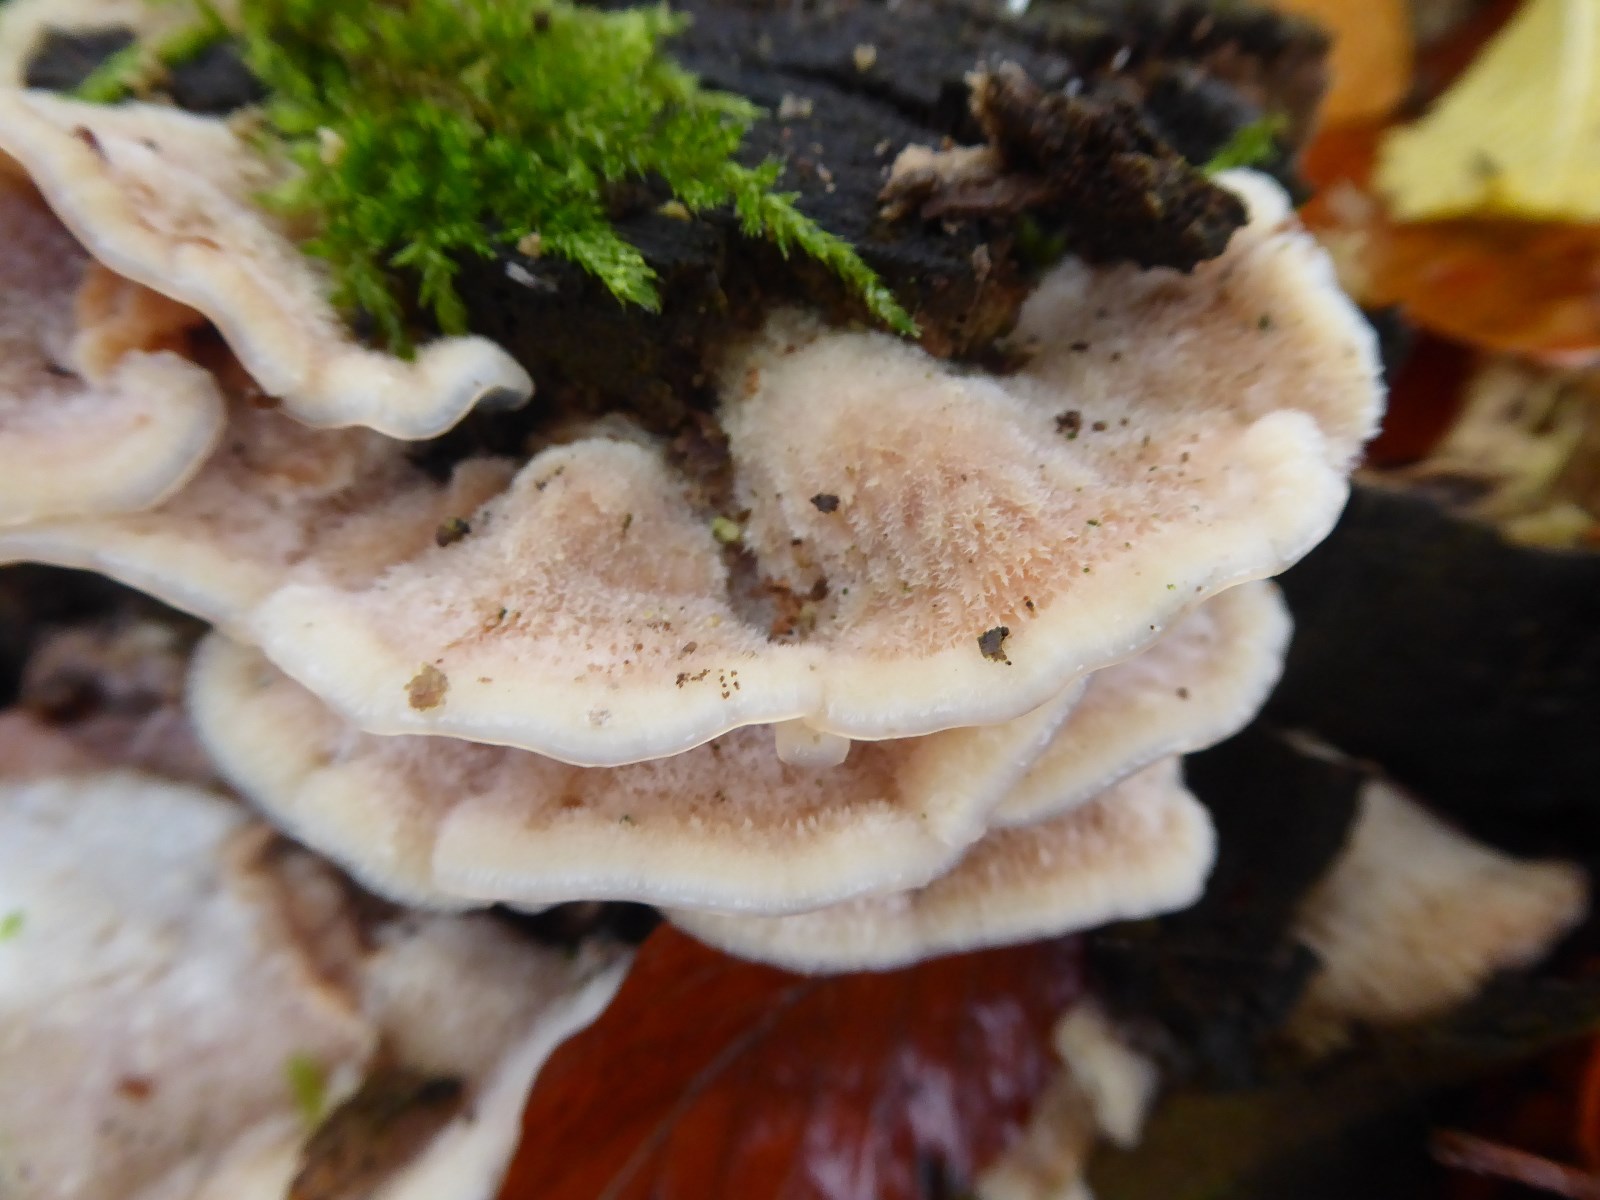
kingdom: Fungi
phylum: Basidiomycota
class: Agaricomycetes
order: Polyporales
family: Meruliaceae
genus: Phlebia
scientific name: Phlebia tremellosa
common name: bævrende åresvamp
